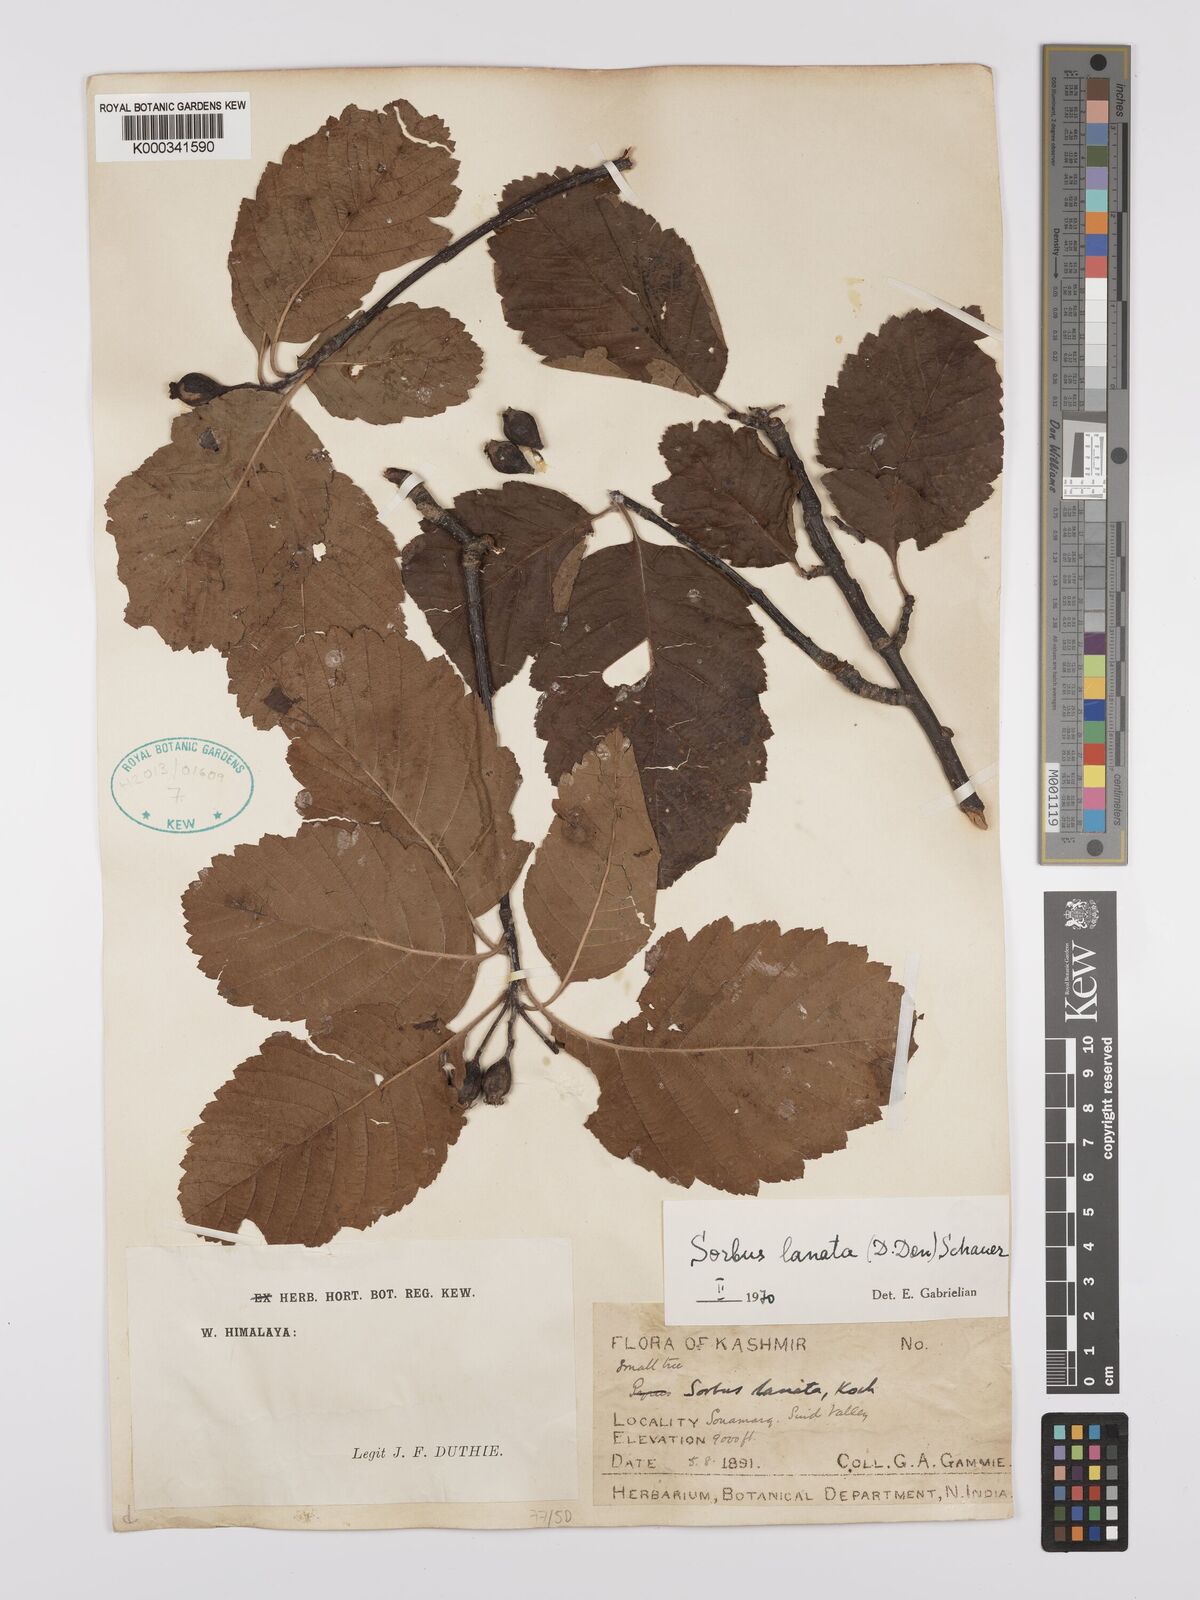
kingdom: Plantae
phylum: Tracheophyta
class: Magnoliopsida
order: Rosales
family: Rosaceae
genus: Sorbus
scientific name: Sorbus lanata
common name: Hairy rowan
